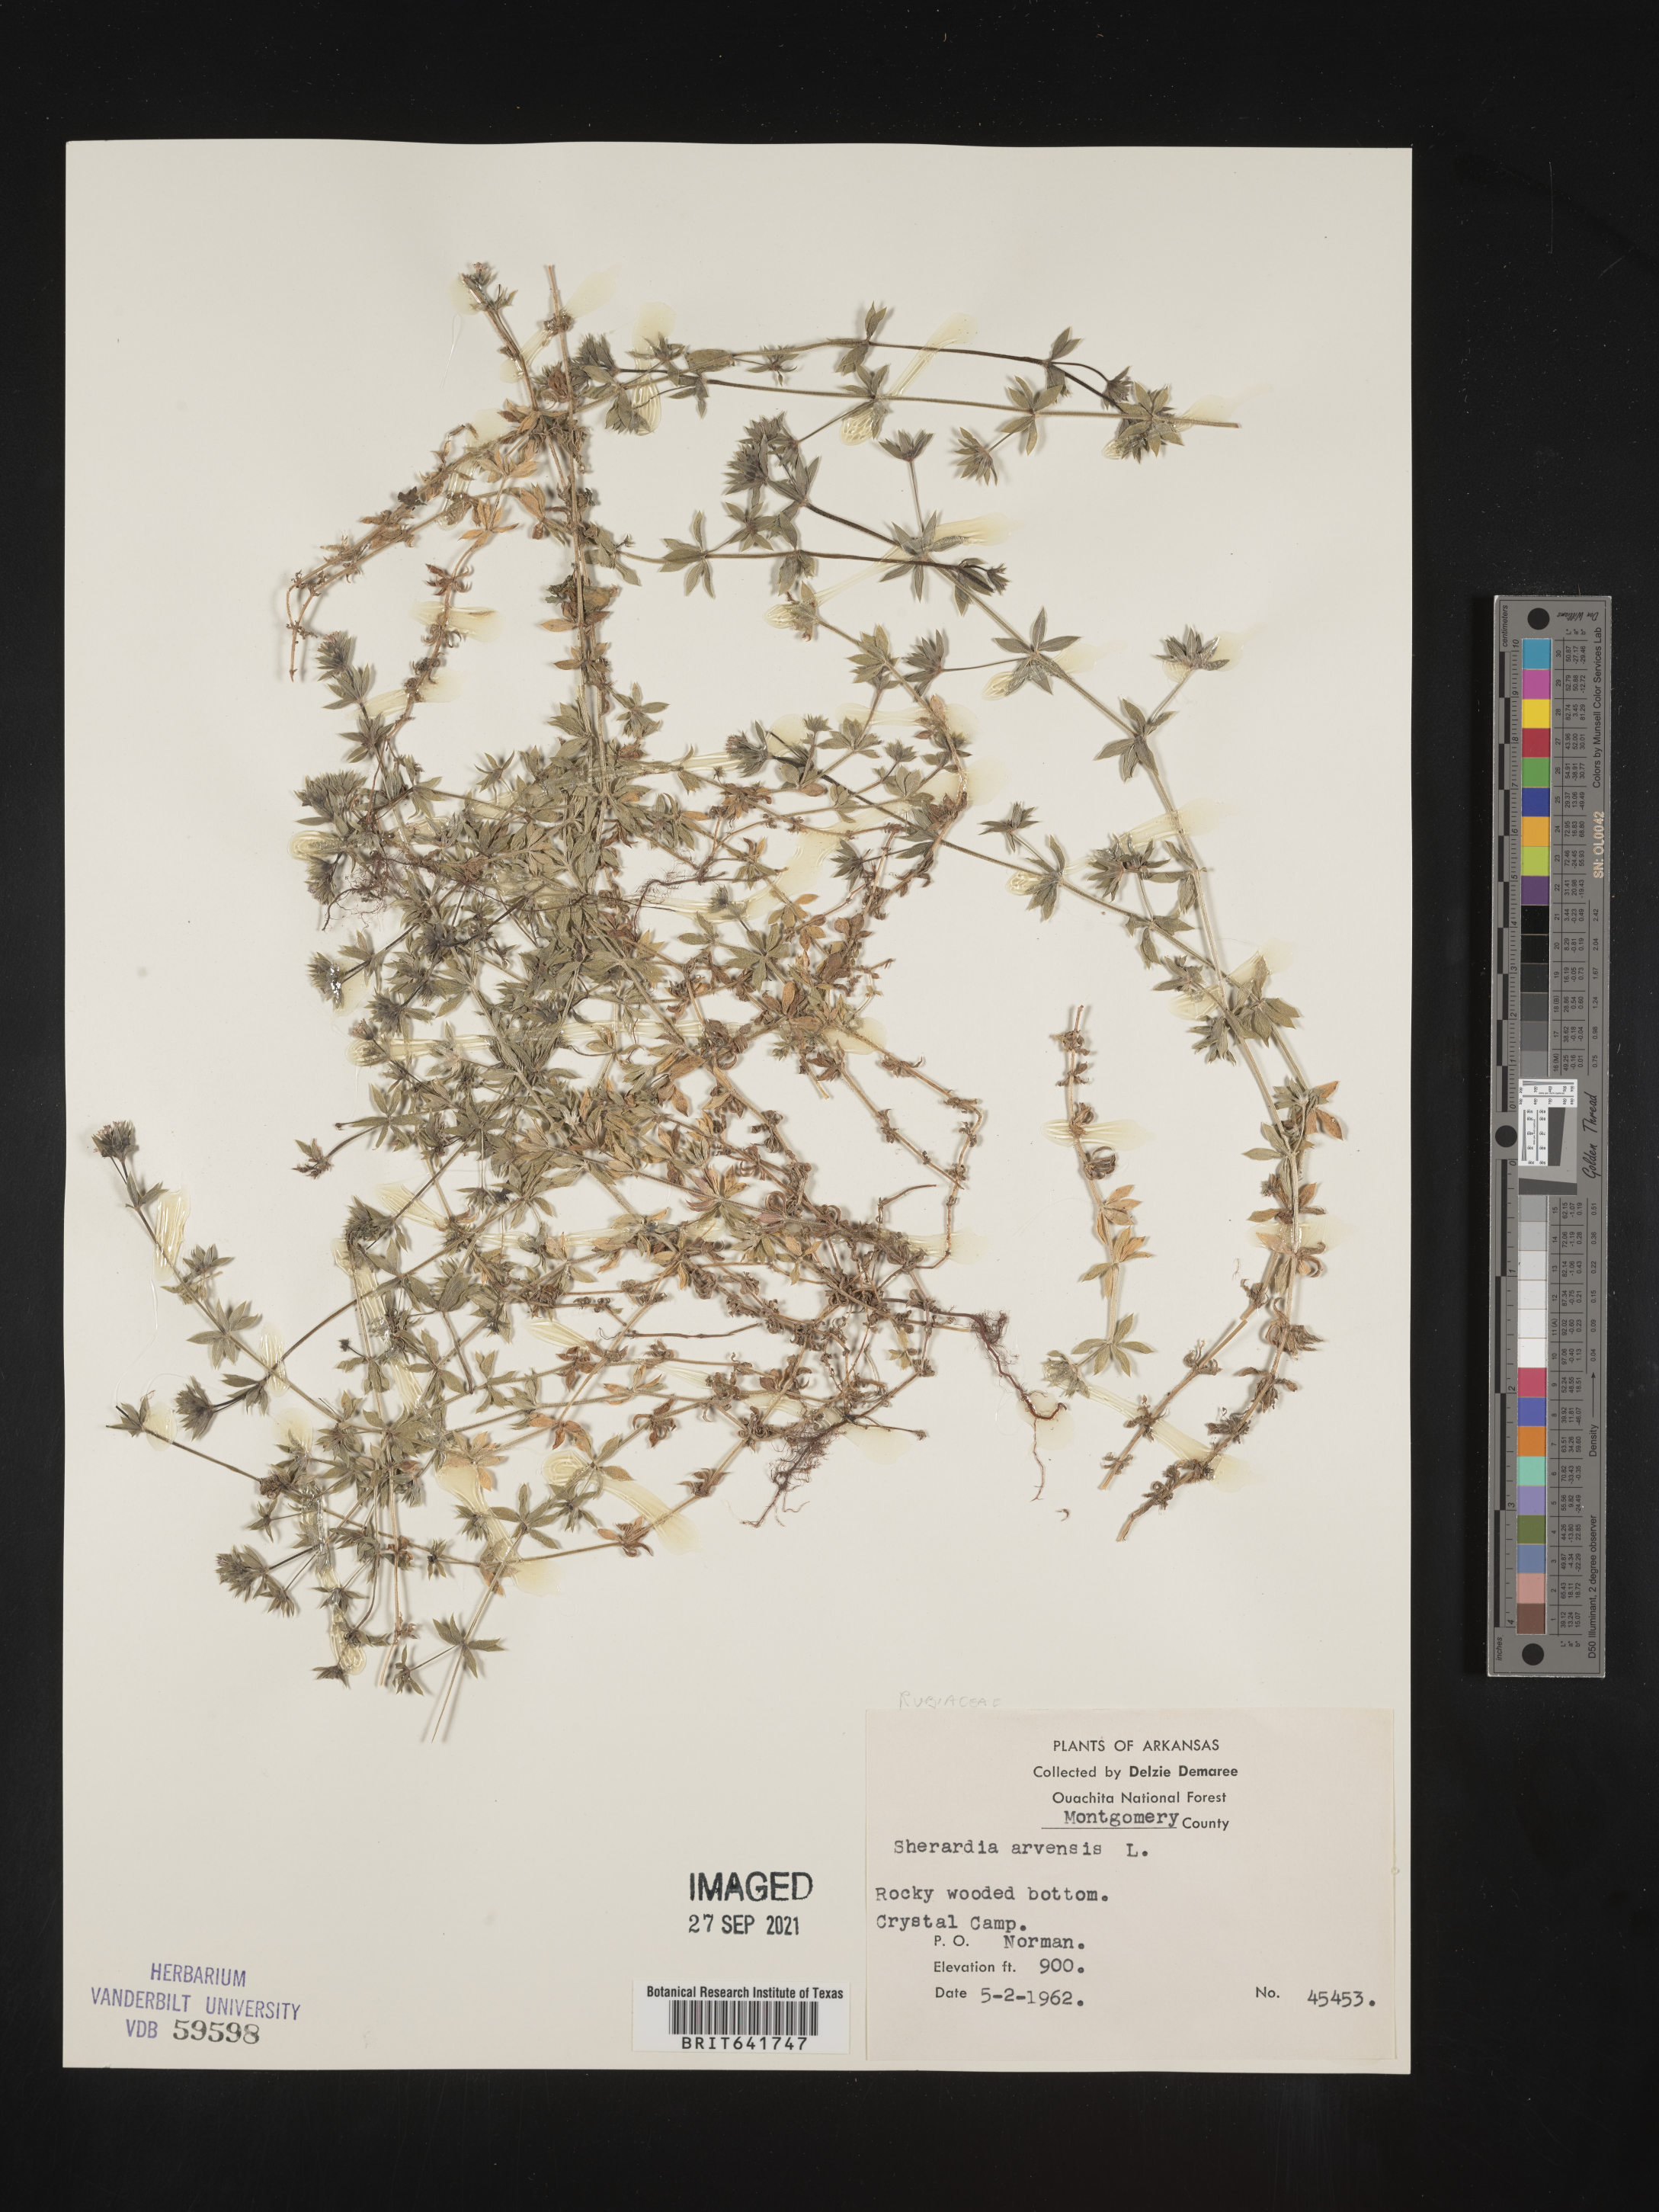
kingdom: Plantae
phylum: Tracheophyta
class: Magnoliopsida
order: Gentianales
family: Rubiaceae
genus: Sherardia
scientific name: Sherardia arvensis
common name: Field madder
